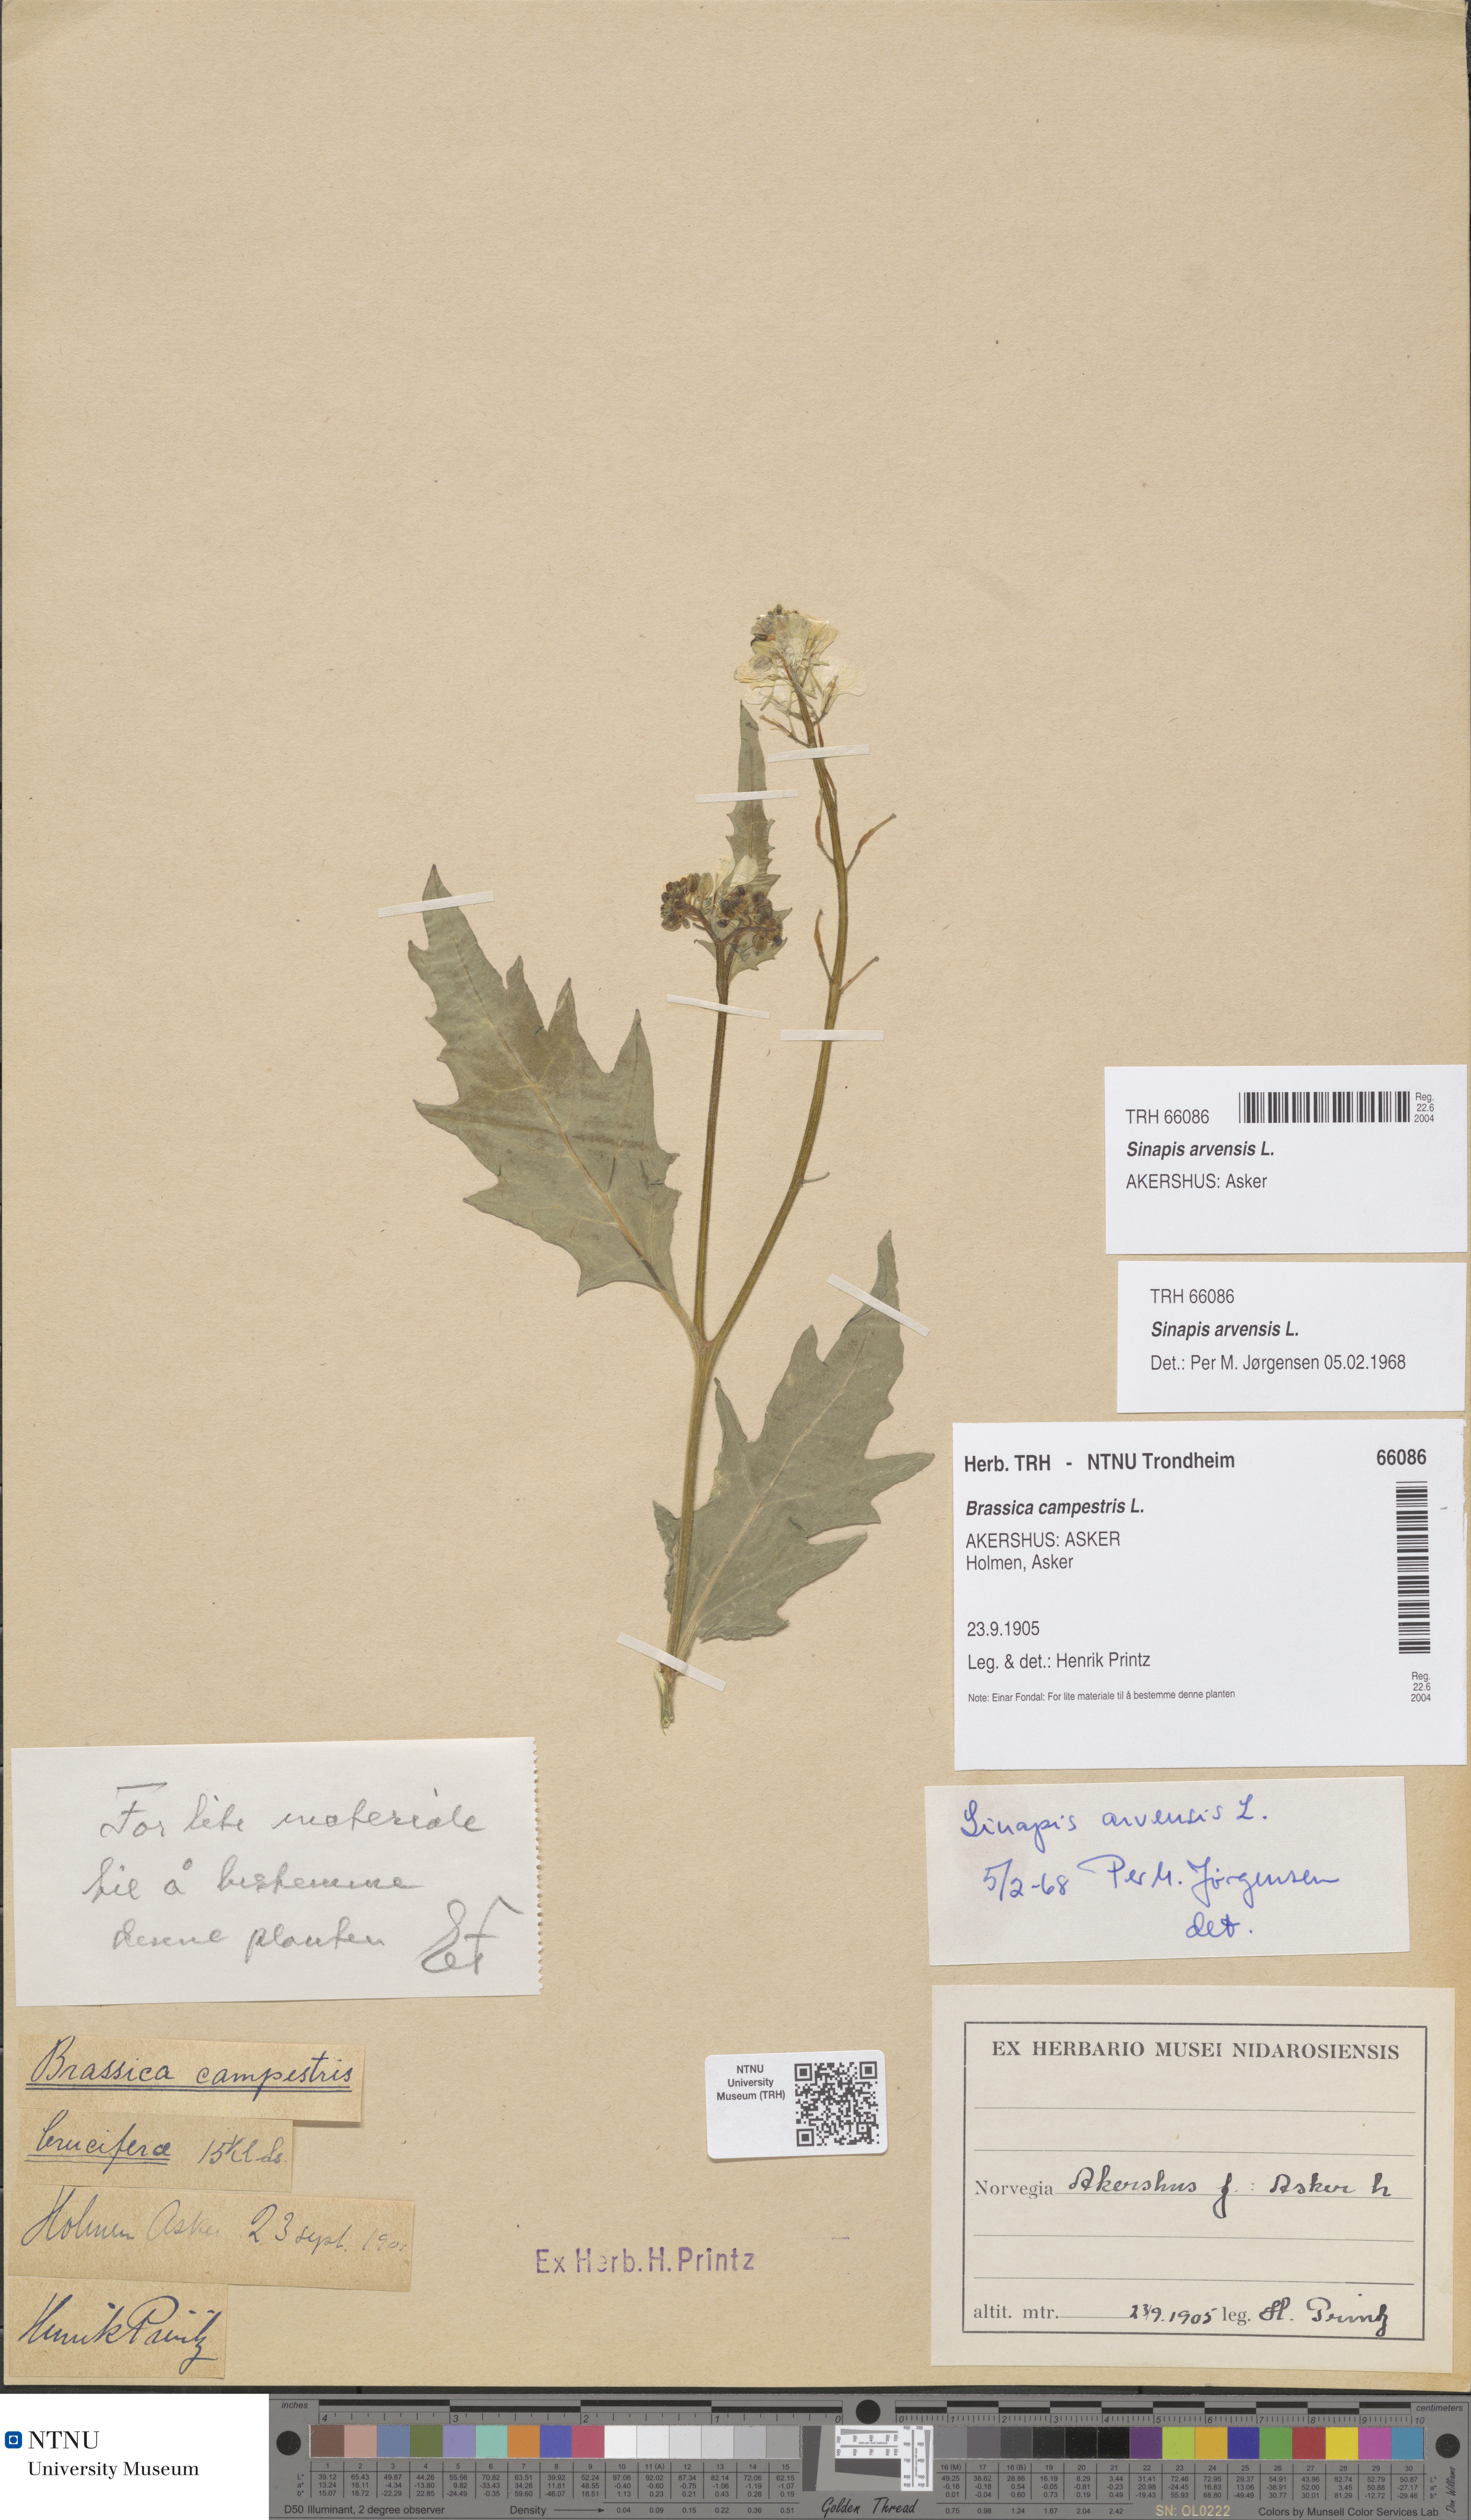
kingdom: Plantae
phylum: Tracheophyta
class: Magnoliopsida
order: Brassicales
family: Brassicaceae
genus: Sinapis
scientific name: Sinapis arvensis
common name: Charlock
